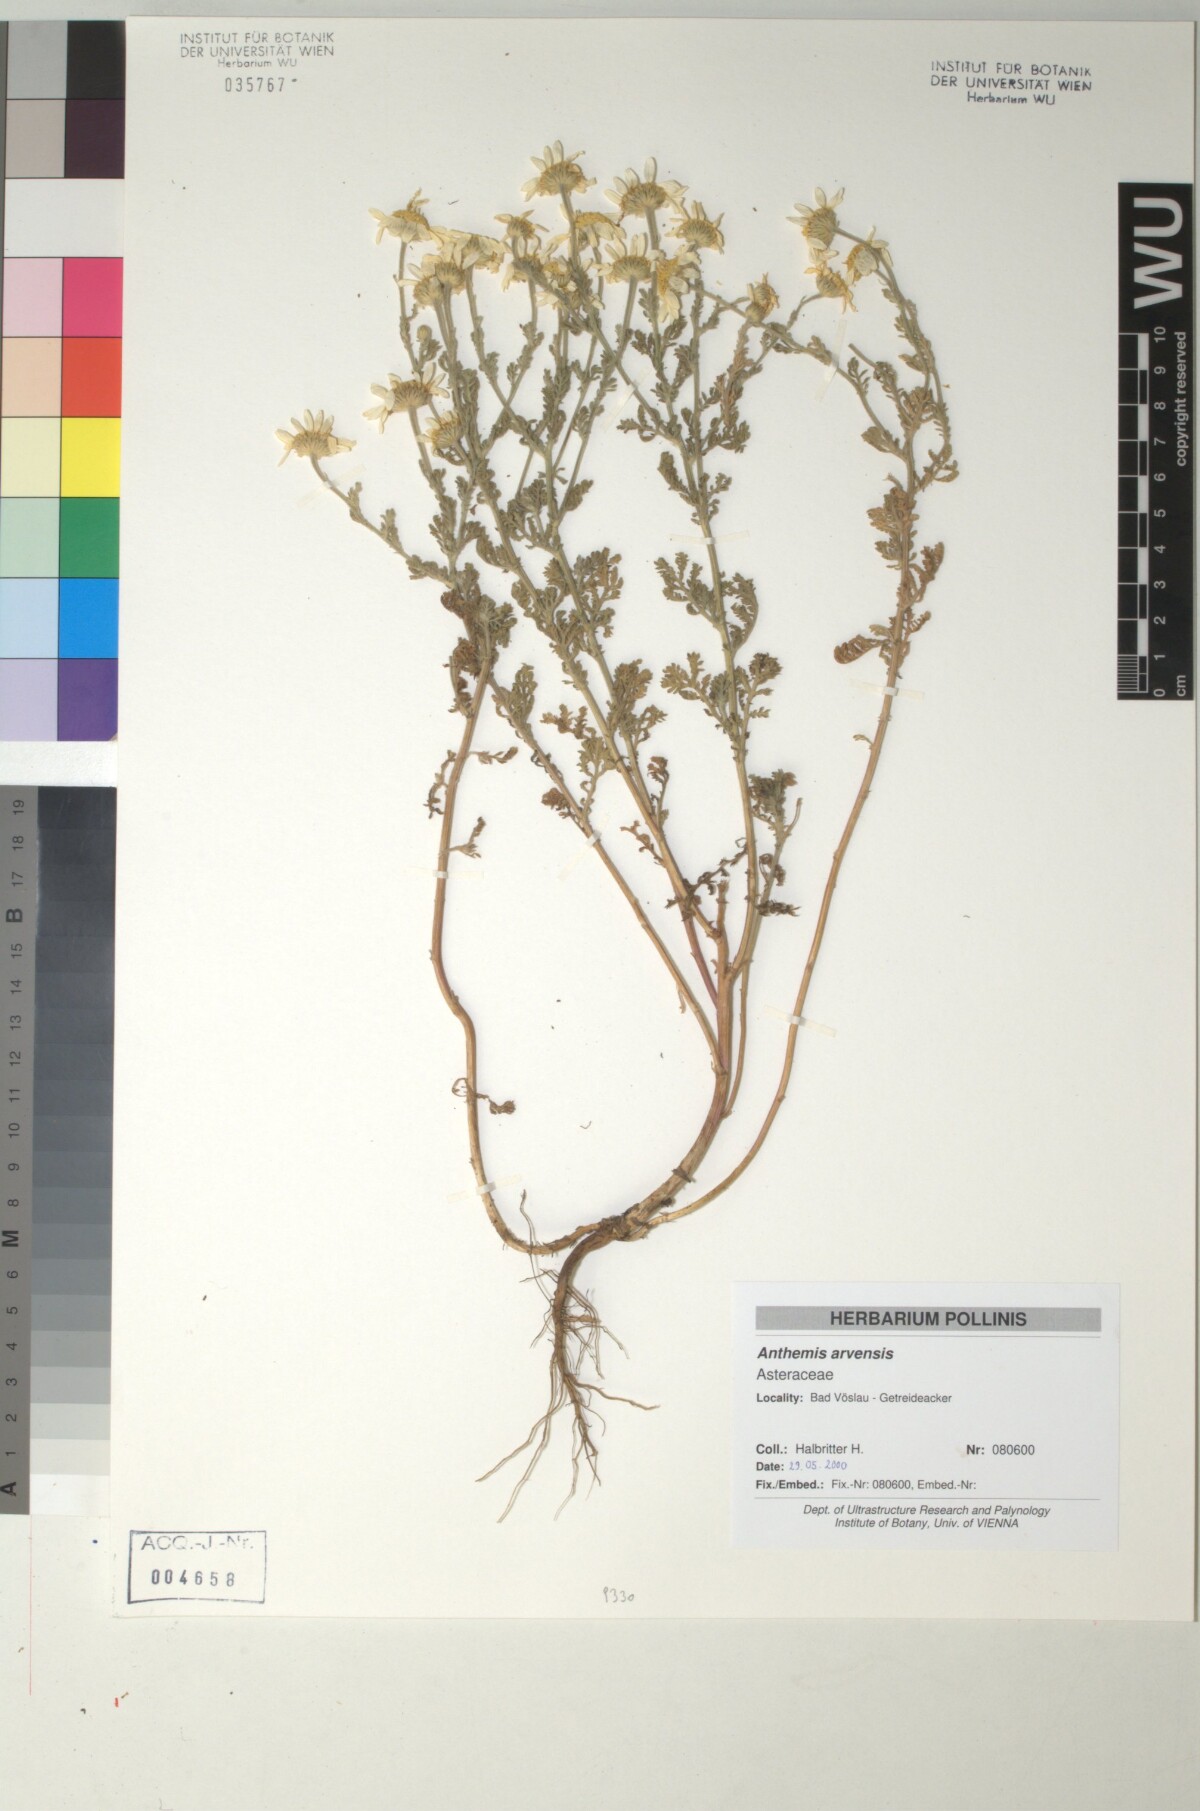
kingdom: Plantae
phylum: Tracheophyta
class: Magnoliopsida
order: Asterales
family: Asteraceae
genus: Anthemis
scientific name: Anthemis arvensis
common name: Corn chamomile
